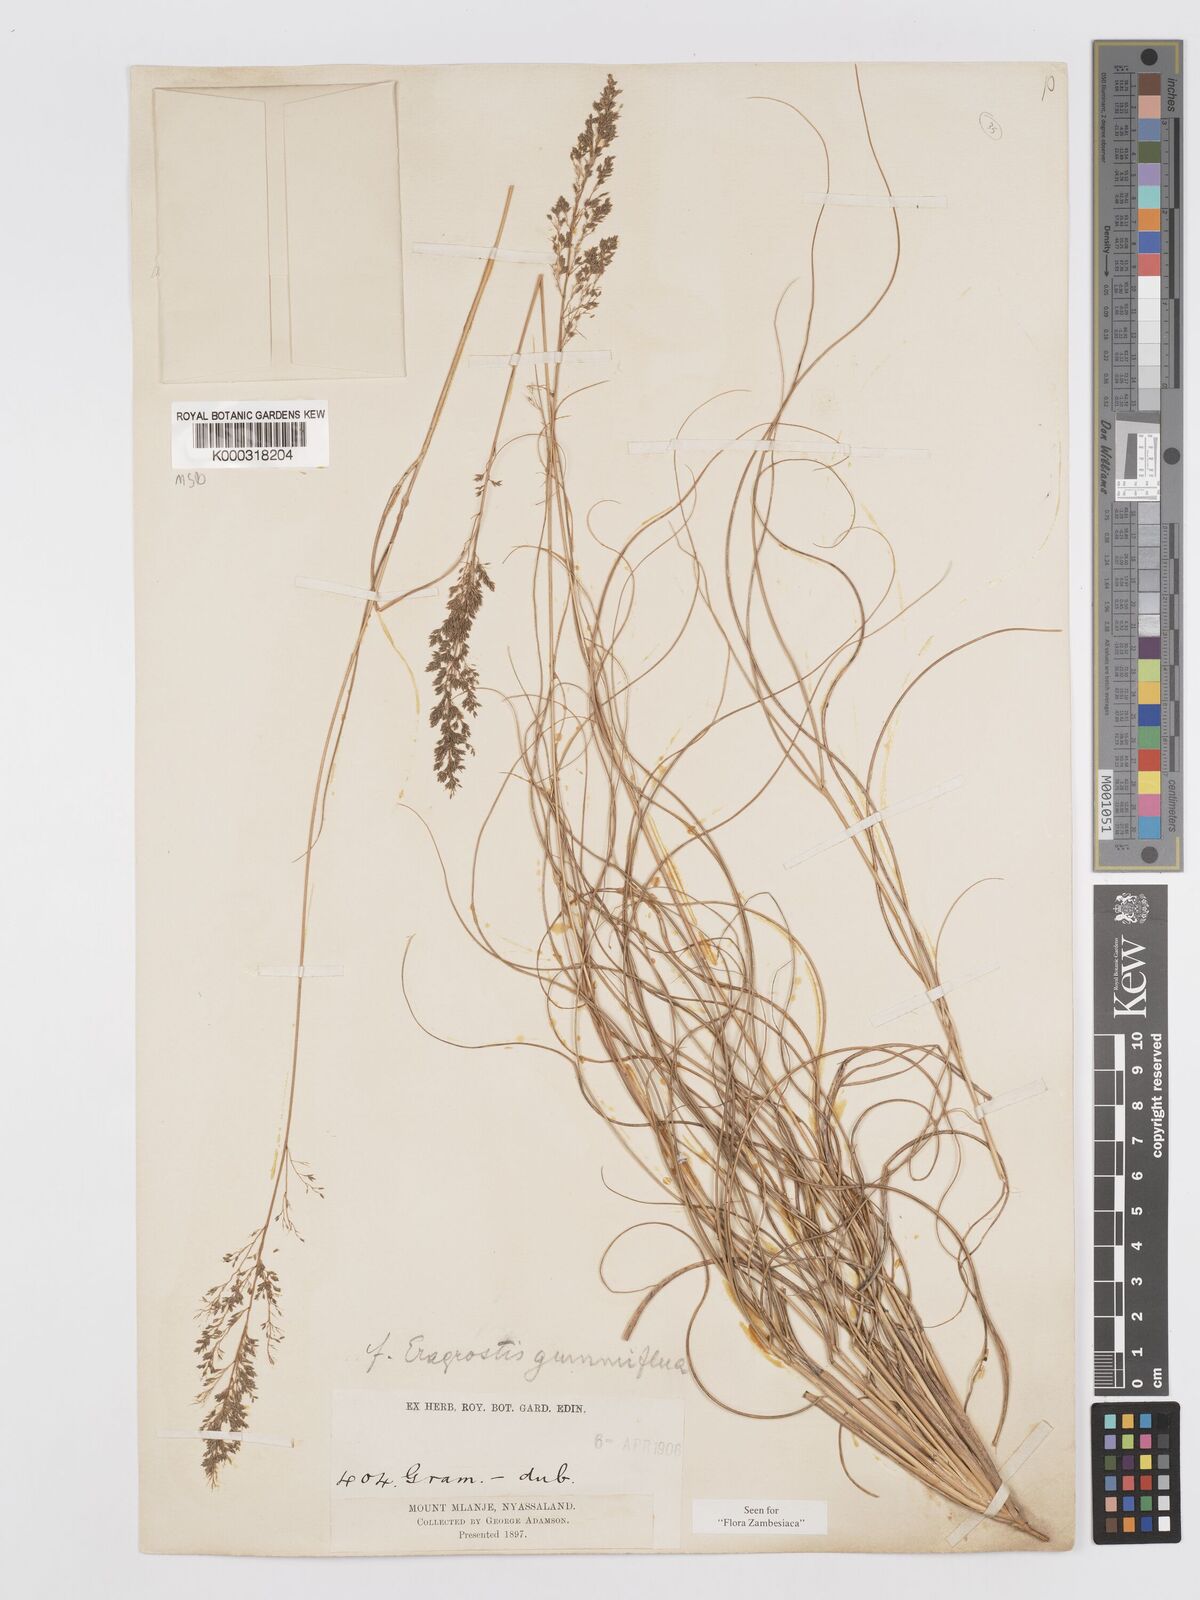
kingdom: Plantae
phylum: Tracheophyta
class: Liliopsida
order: Poales
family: Poaceae
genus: Eragrostis
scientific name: Eragrostis fastigiata
